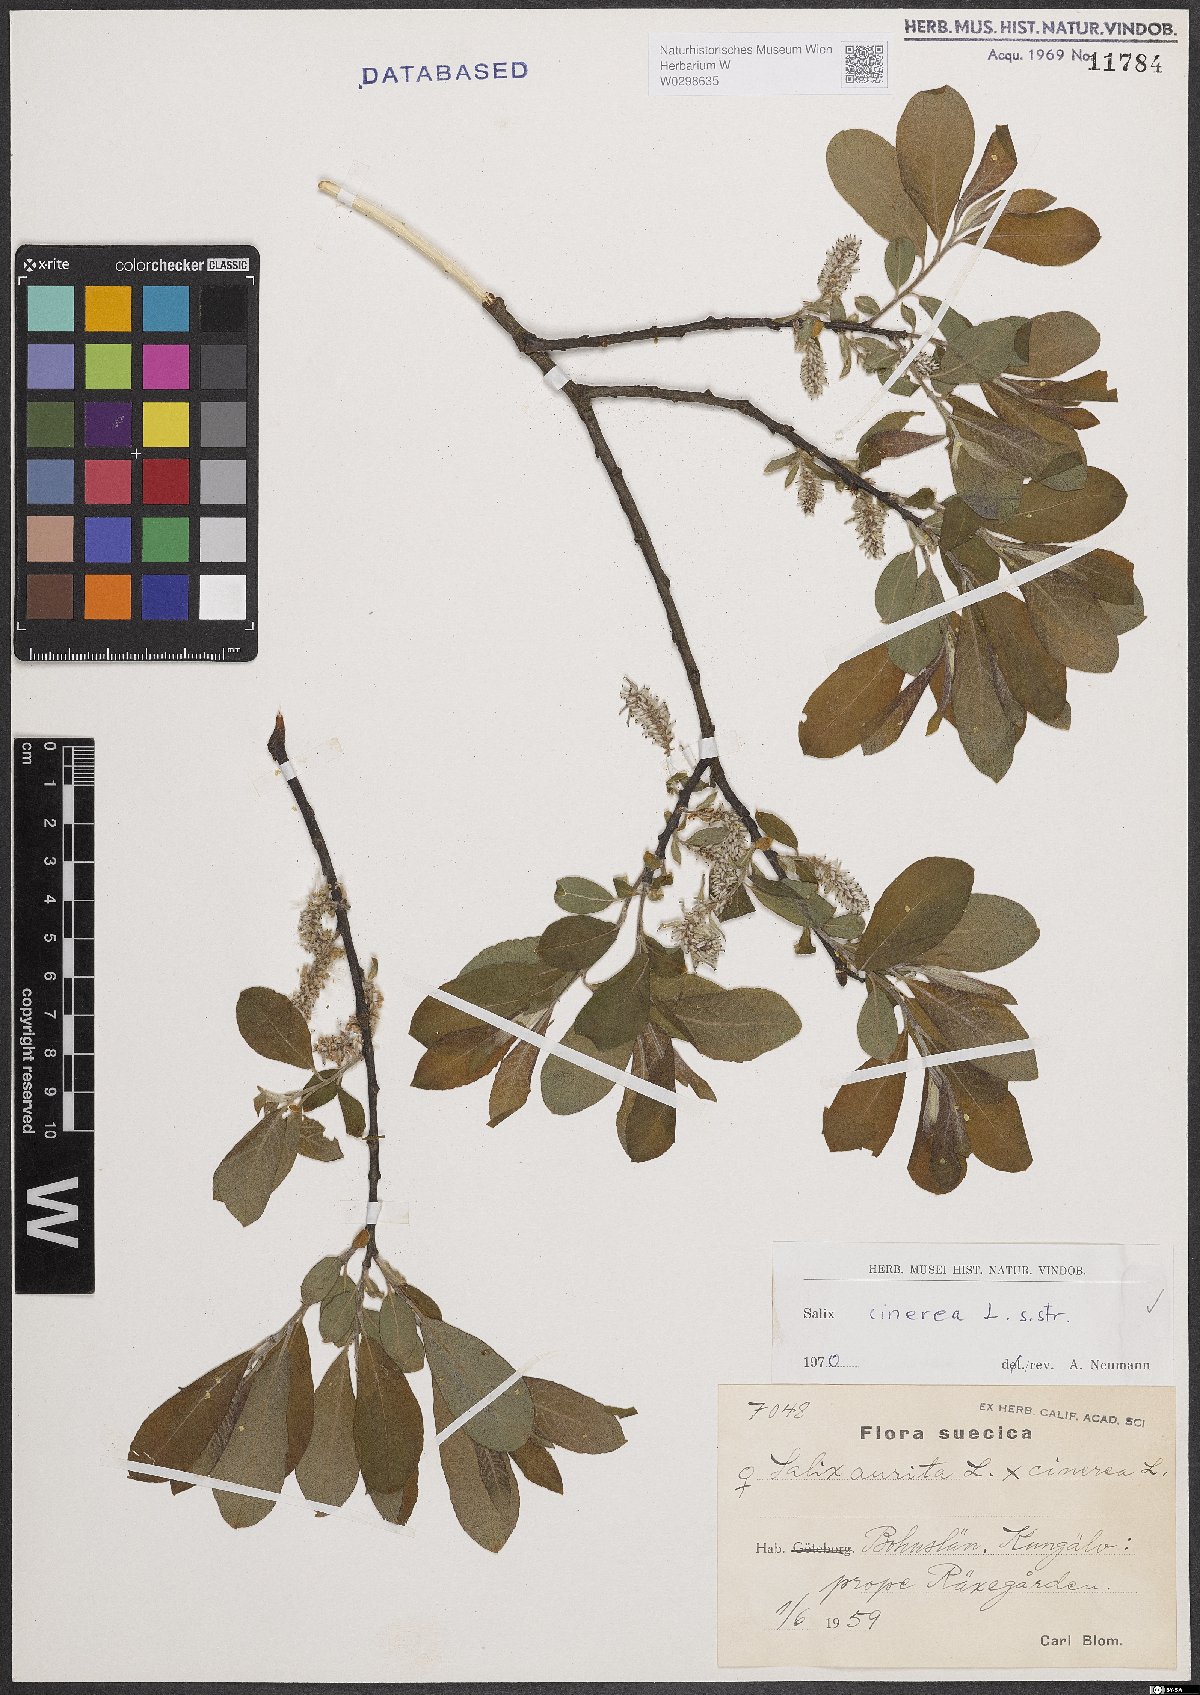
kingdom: Plantae
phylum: Tracheophyta
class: Magnoliopsida
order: Malpighiales
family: Salicaceae
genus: Salix
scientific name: Salix cinerea
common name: Common sallow
